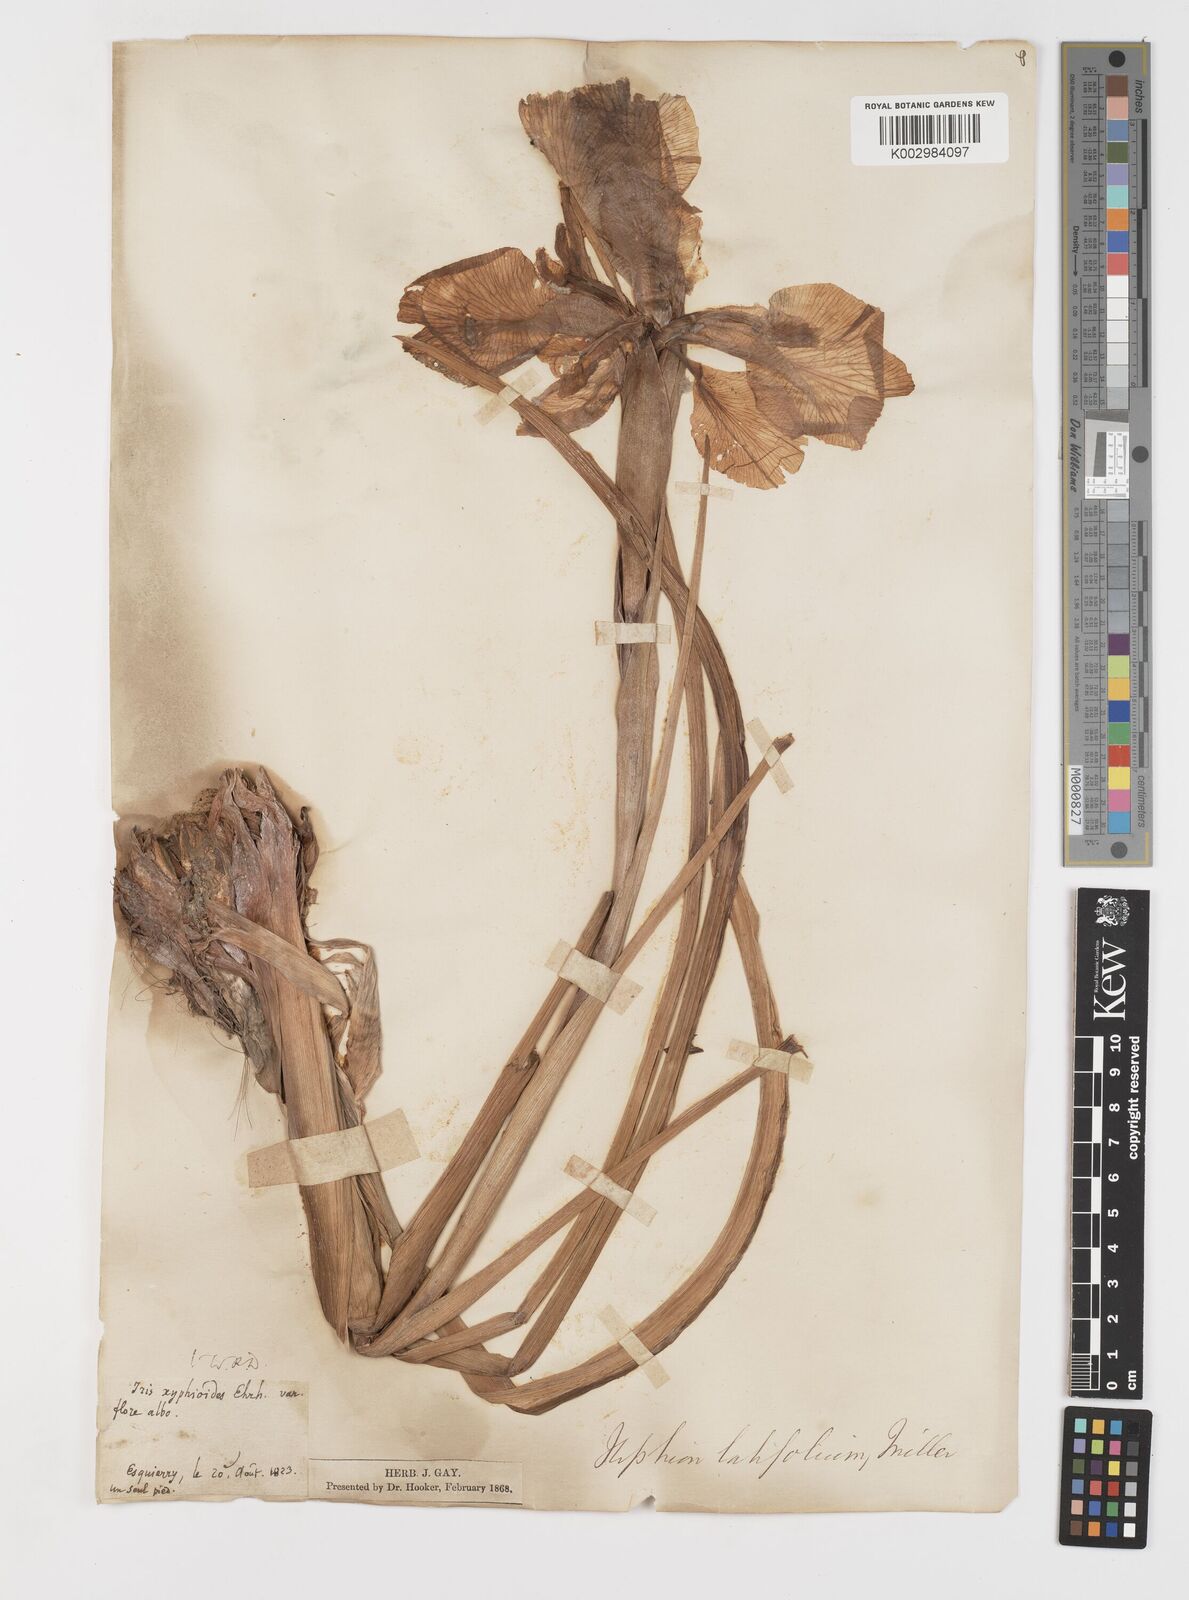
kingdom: Plantae
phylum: Tracheophyta
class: Liliopsida
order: Asparagales
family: Iridaceae
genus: Iris
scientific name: Iris jacquinii
